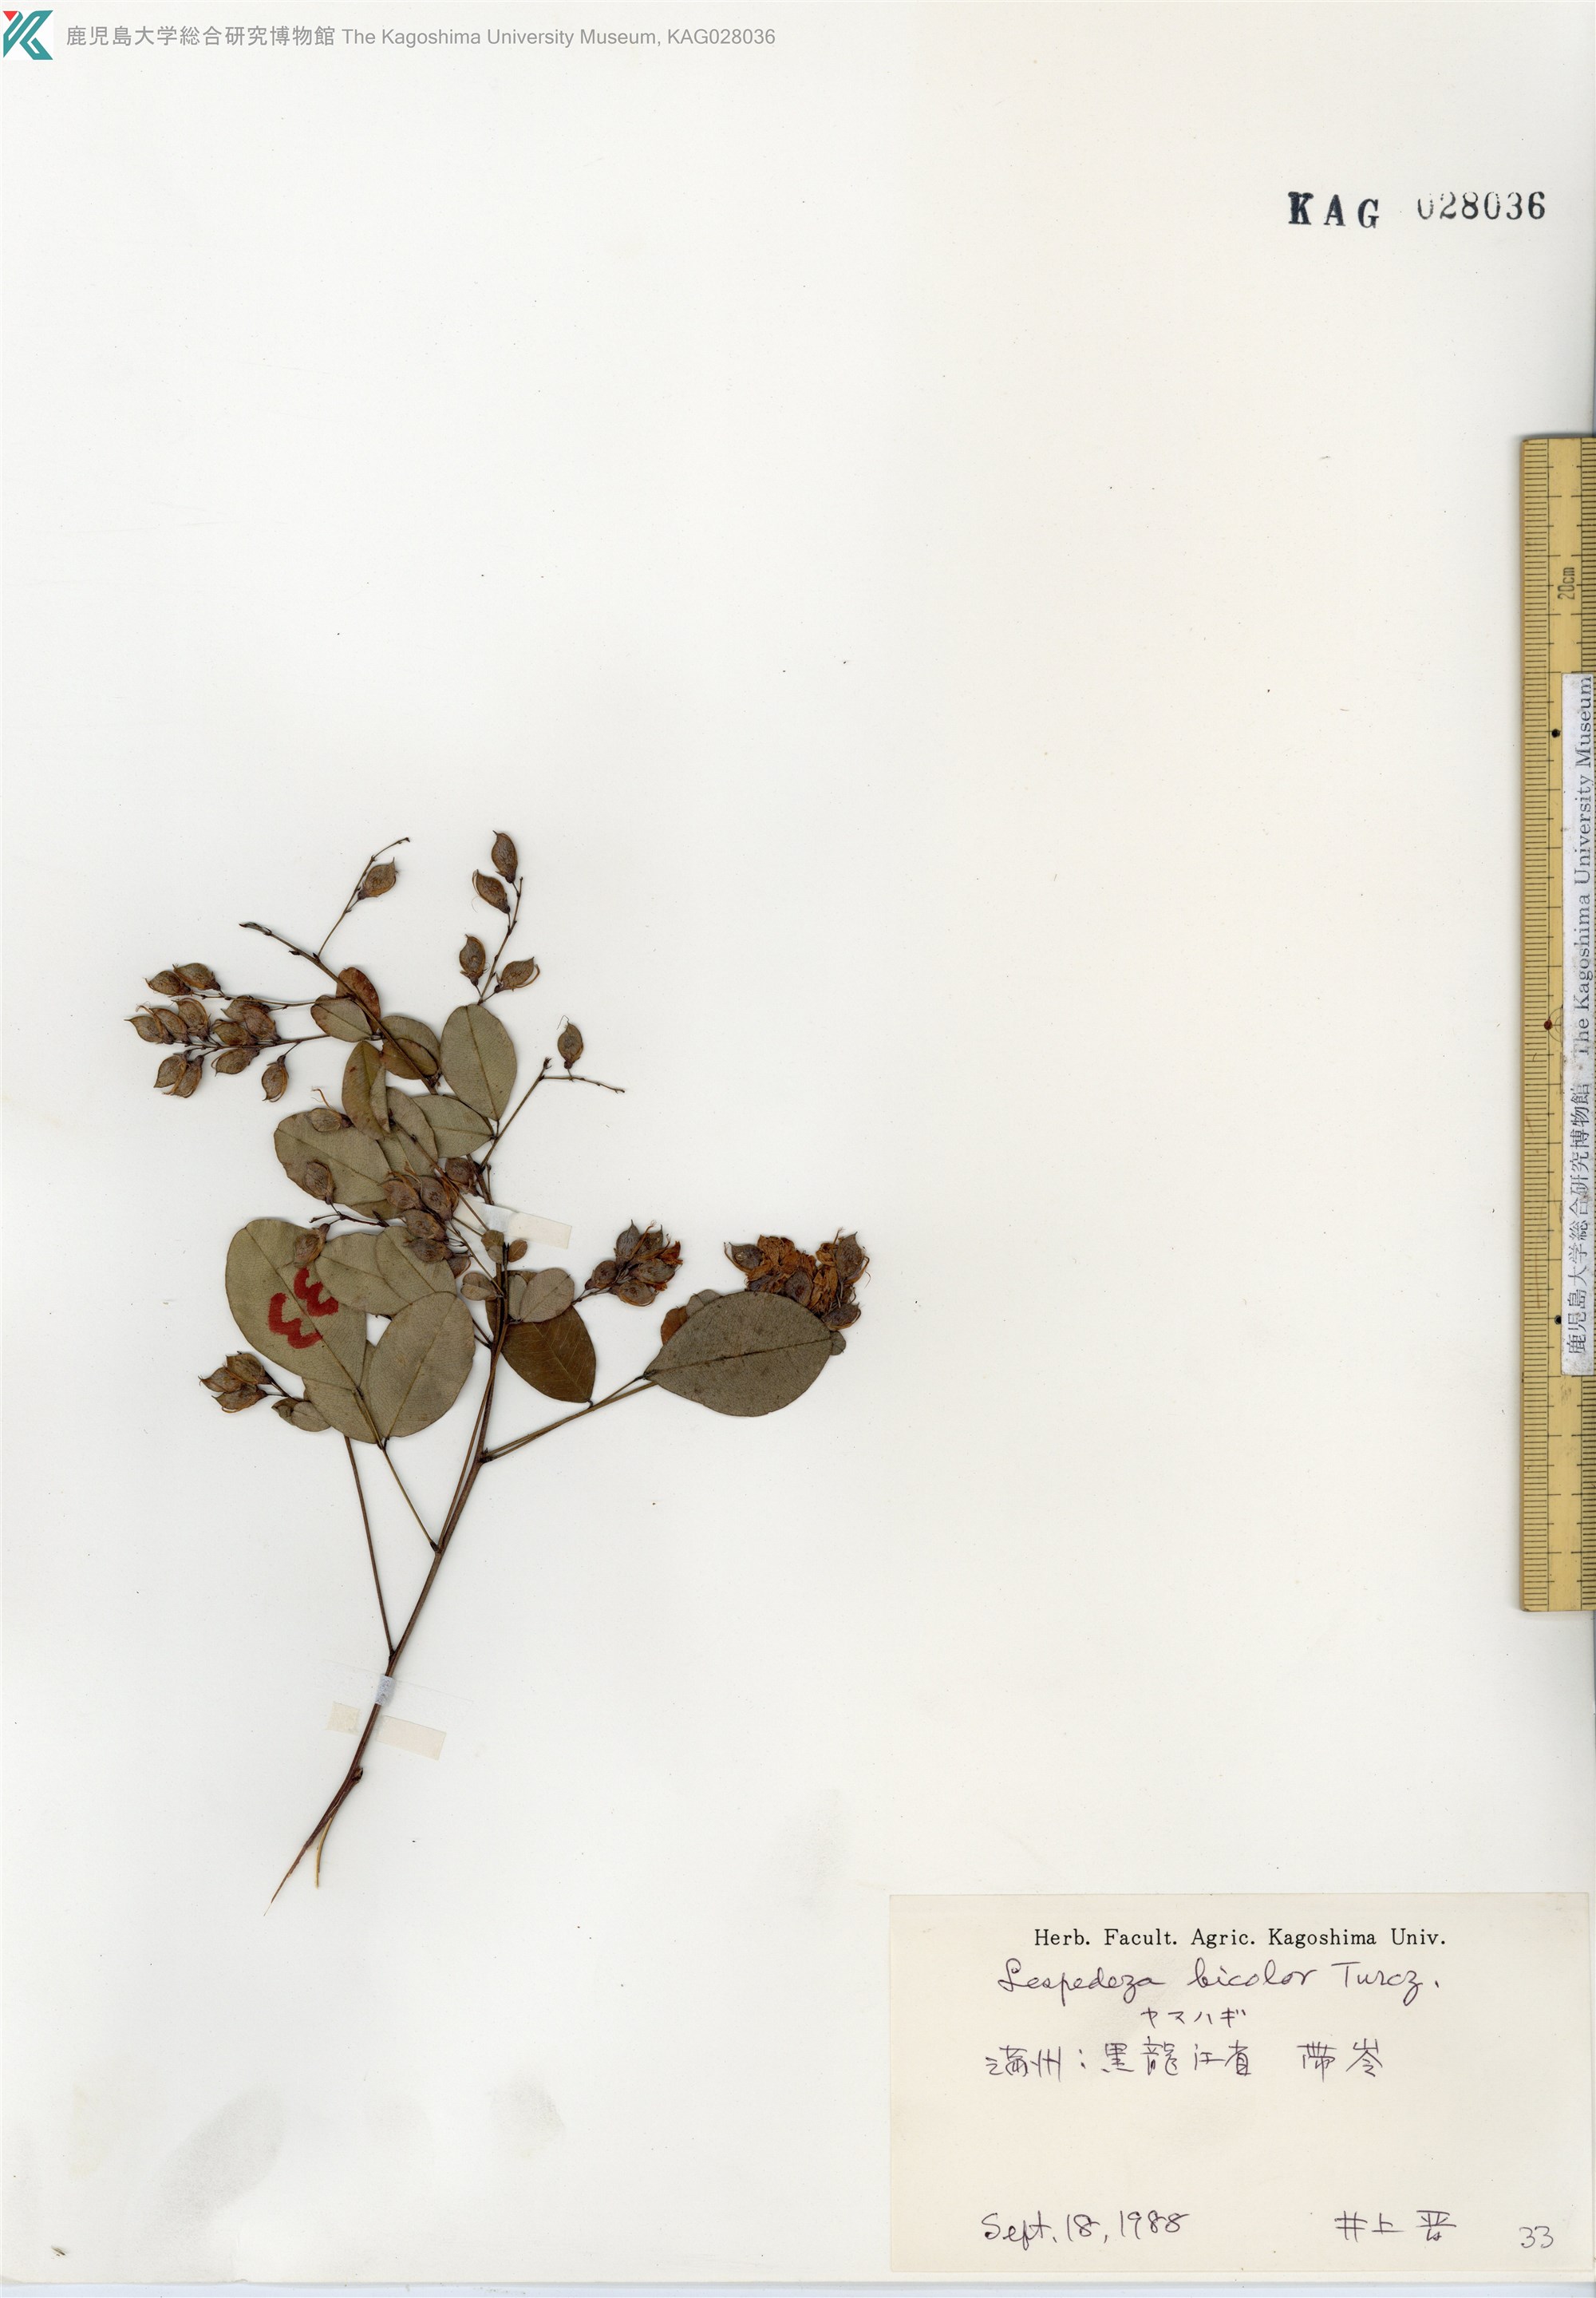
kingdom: Plantae
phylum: Tracheophyta
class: Magnoliopsida
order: Fabales
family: Fabaceae
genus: Lespedeza
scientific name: Lespedeza bicolor
